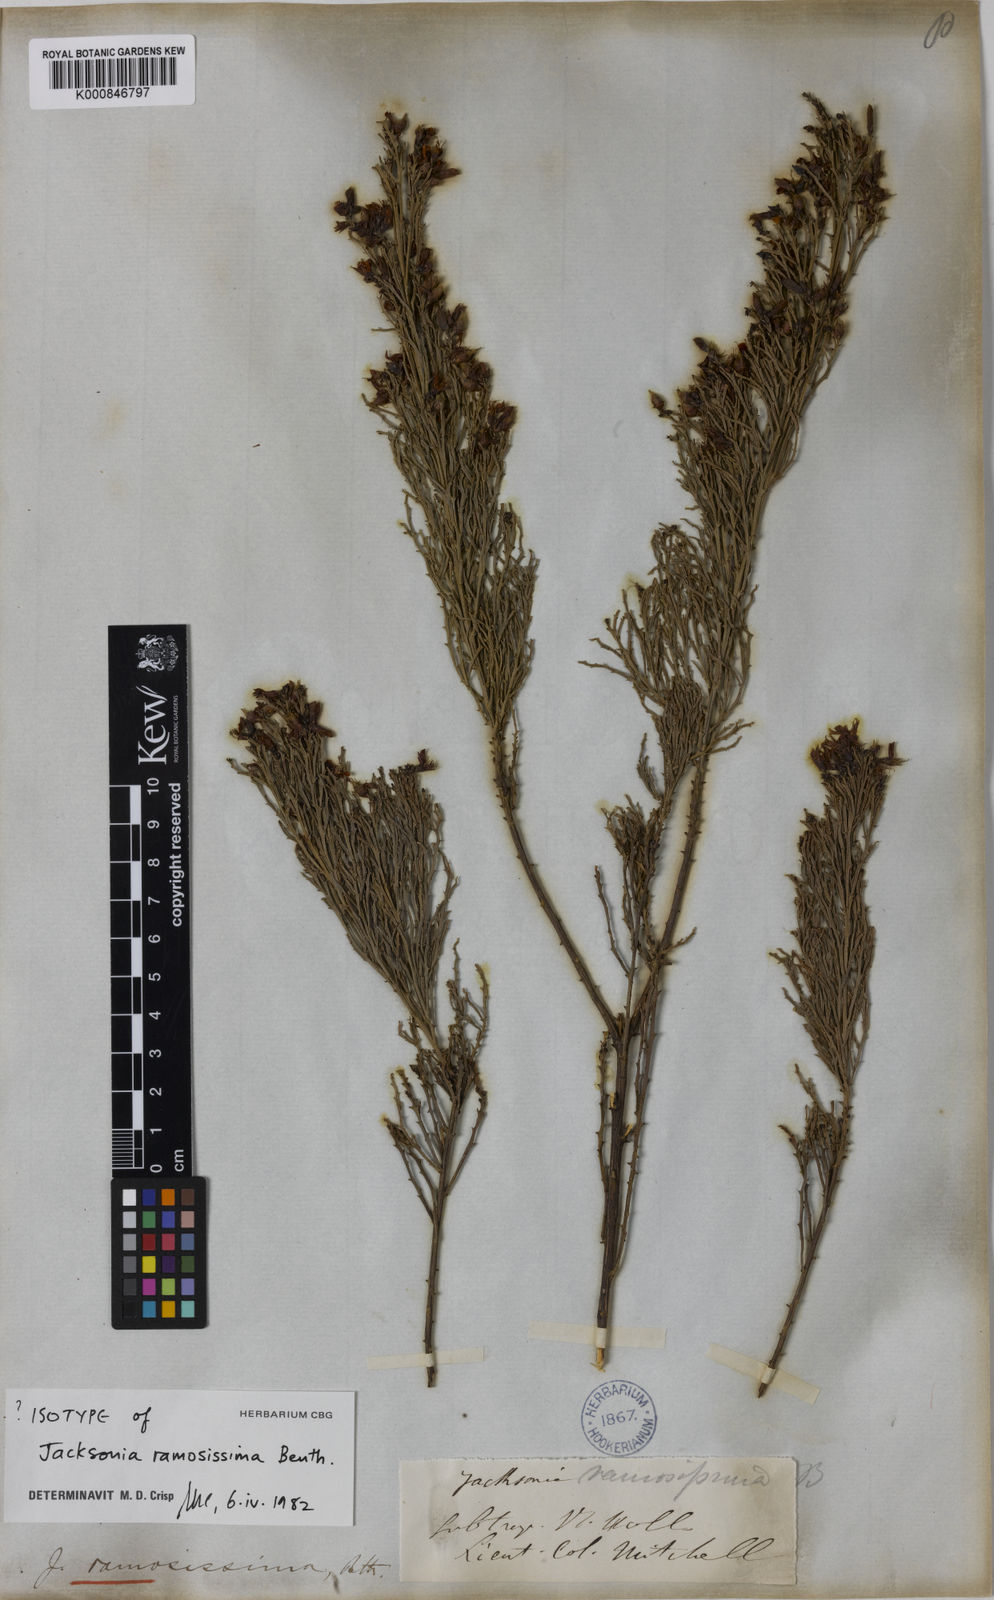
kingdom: Plantae
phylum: Tracheophyta
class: Magnoliopsida
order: Fabales
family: Fabaceae
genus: Jacksonia
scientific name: Jacksonia ramosissima
